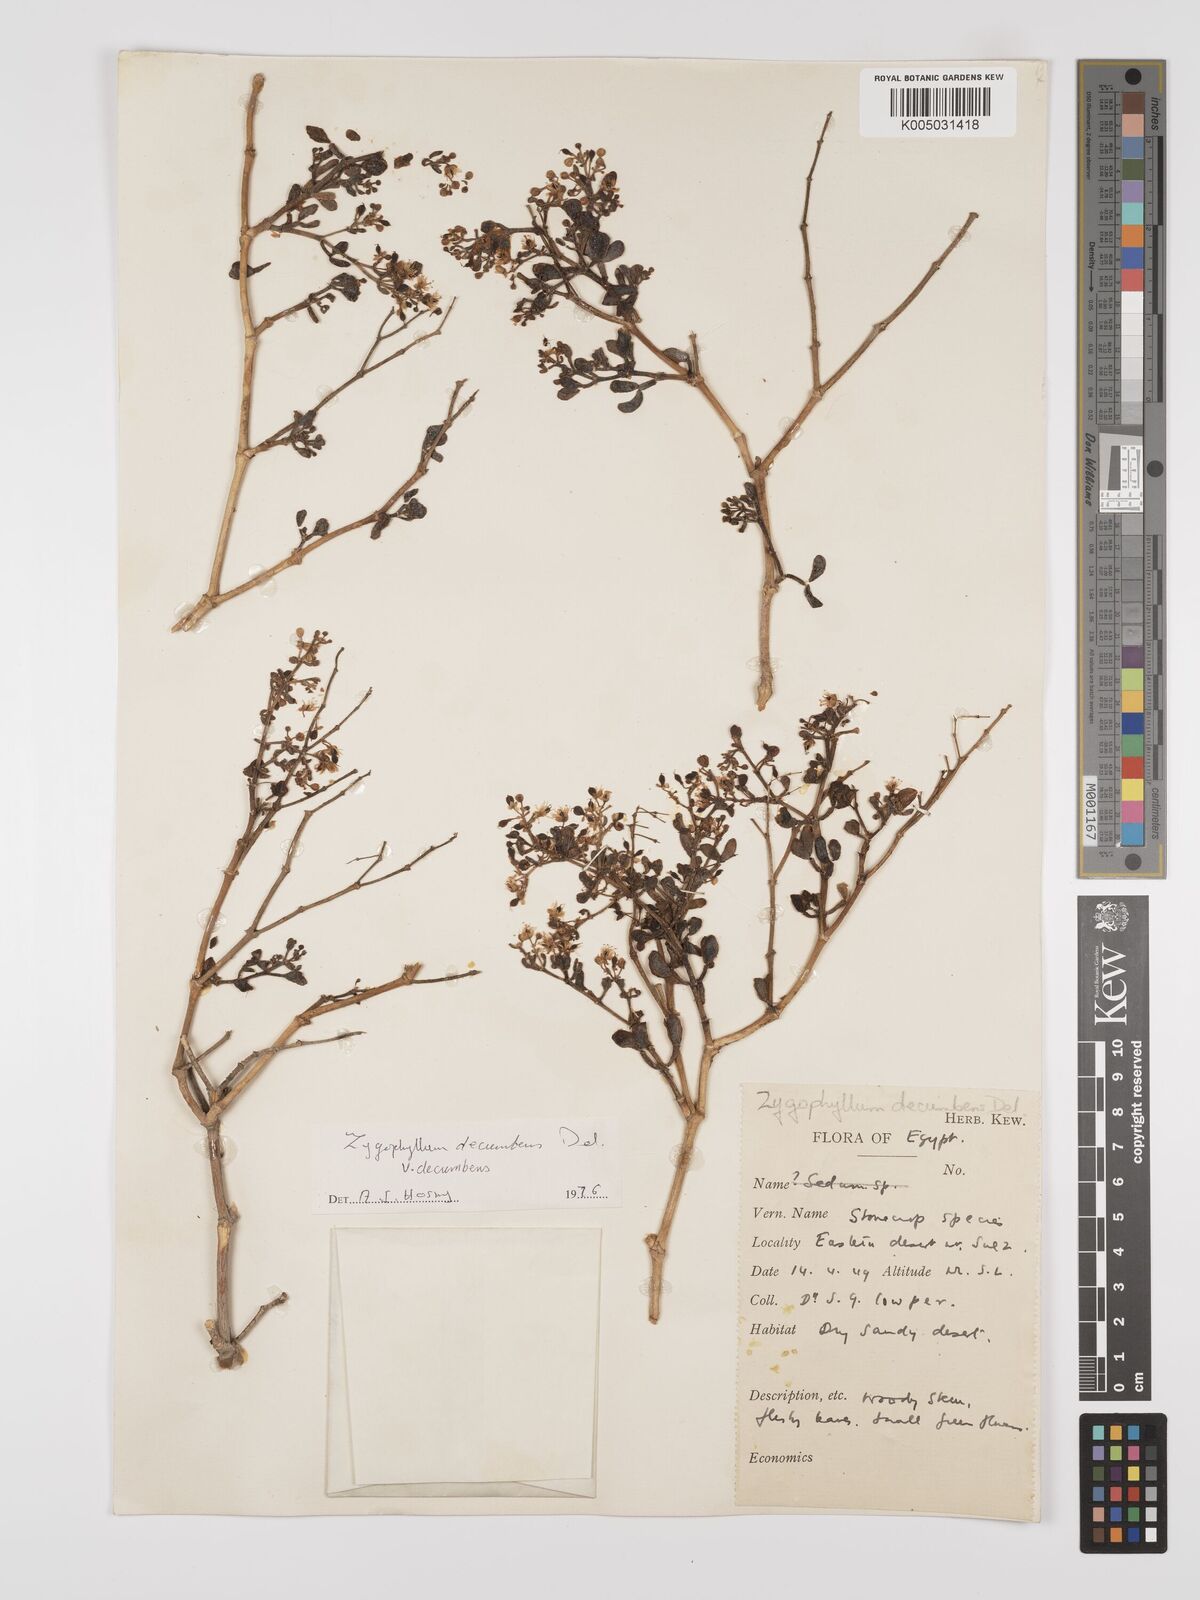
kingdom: Plantae
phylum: Tracheophyta
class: Magnoliopsida
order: Zygophyllales
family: Zygophyllaceae
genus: Tetraena
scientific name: Tetraena decumbens
